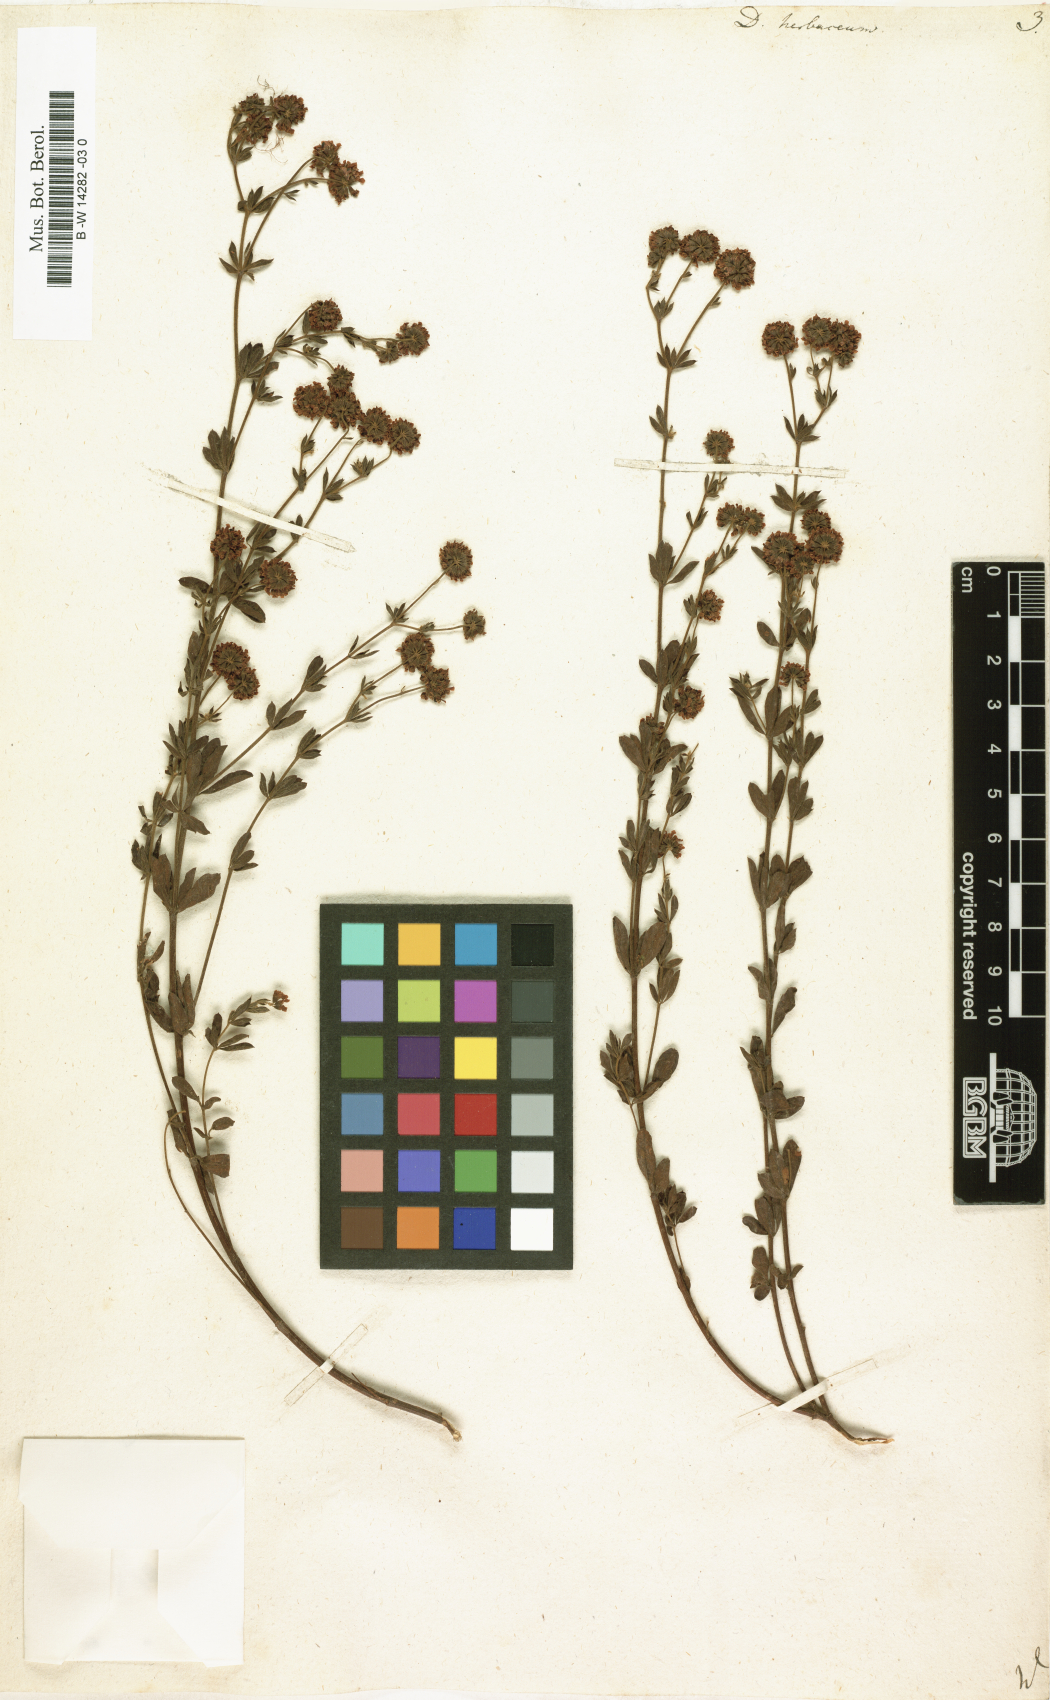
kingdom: Plantae
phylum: Tracheophyta
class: Magnoliopsida
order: Fabales
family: Fabaceae
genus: Lotus
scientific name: Lotus herbaceus
